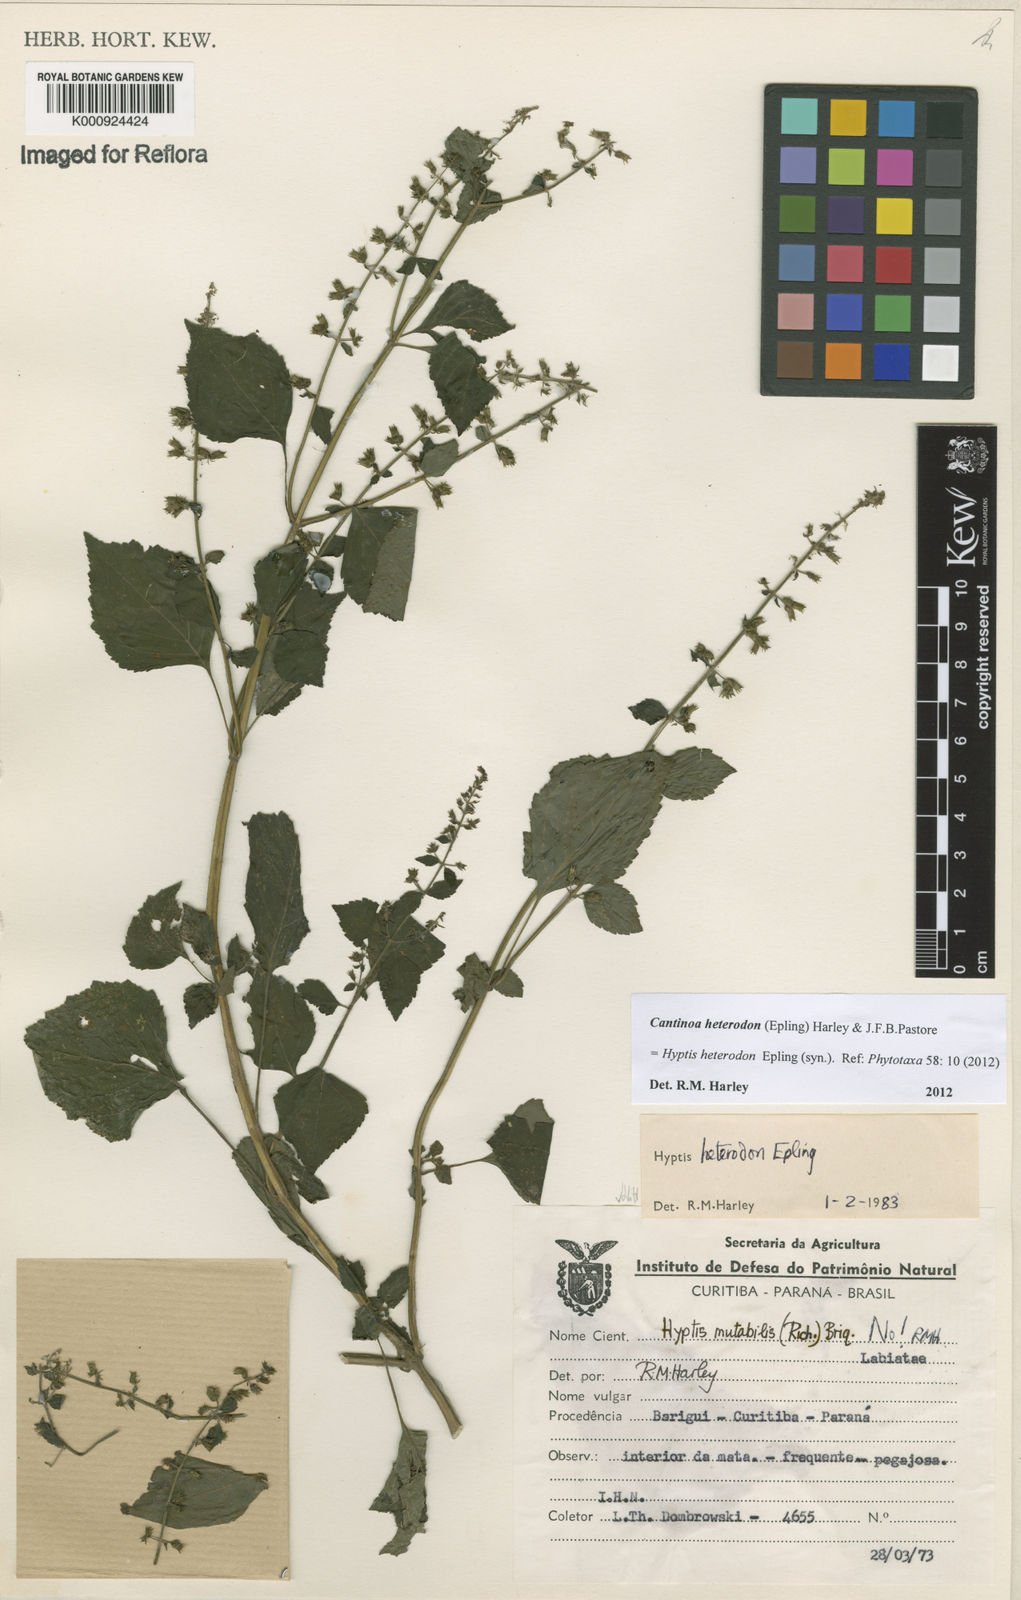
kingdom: Plantae
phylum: Tracheophyta
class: Magnoliopsida
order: Lamiales
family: Lamiaceae
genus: Cantinoa
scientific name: Cantinoa heterodon
